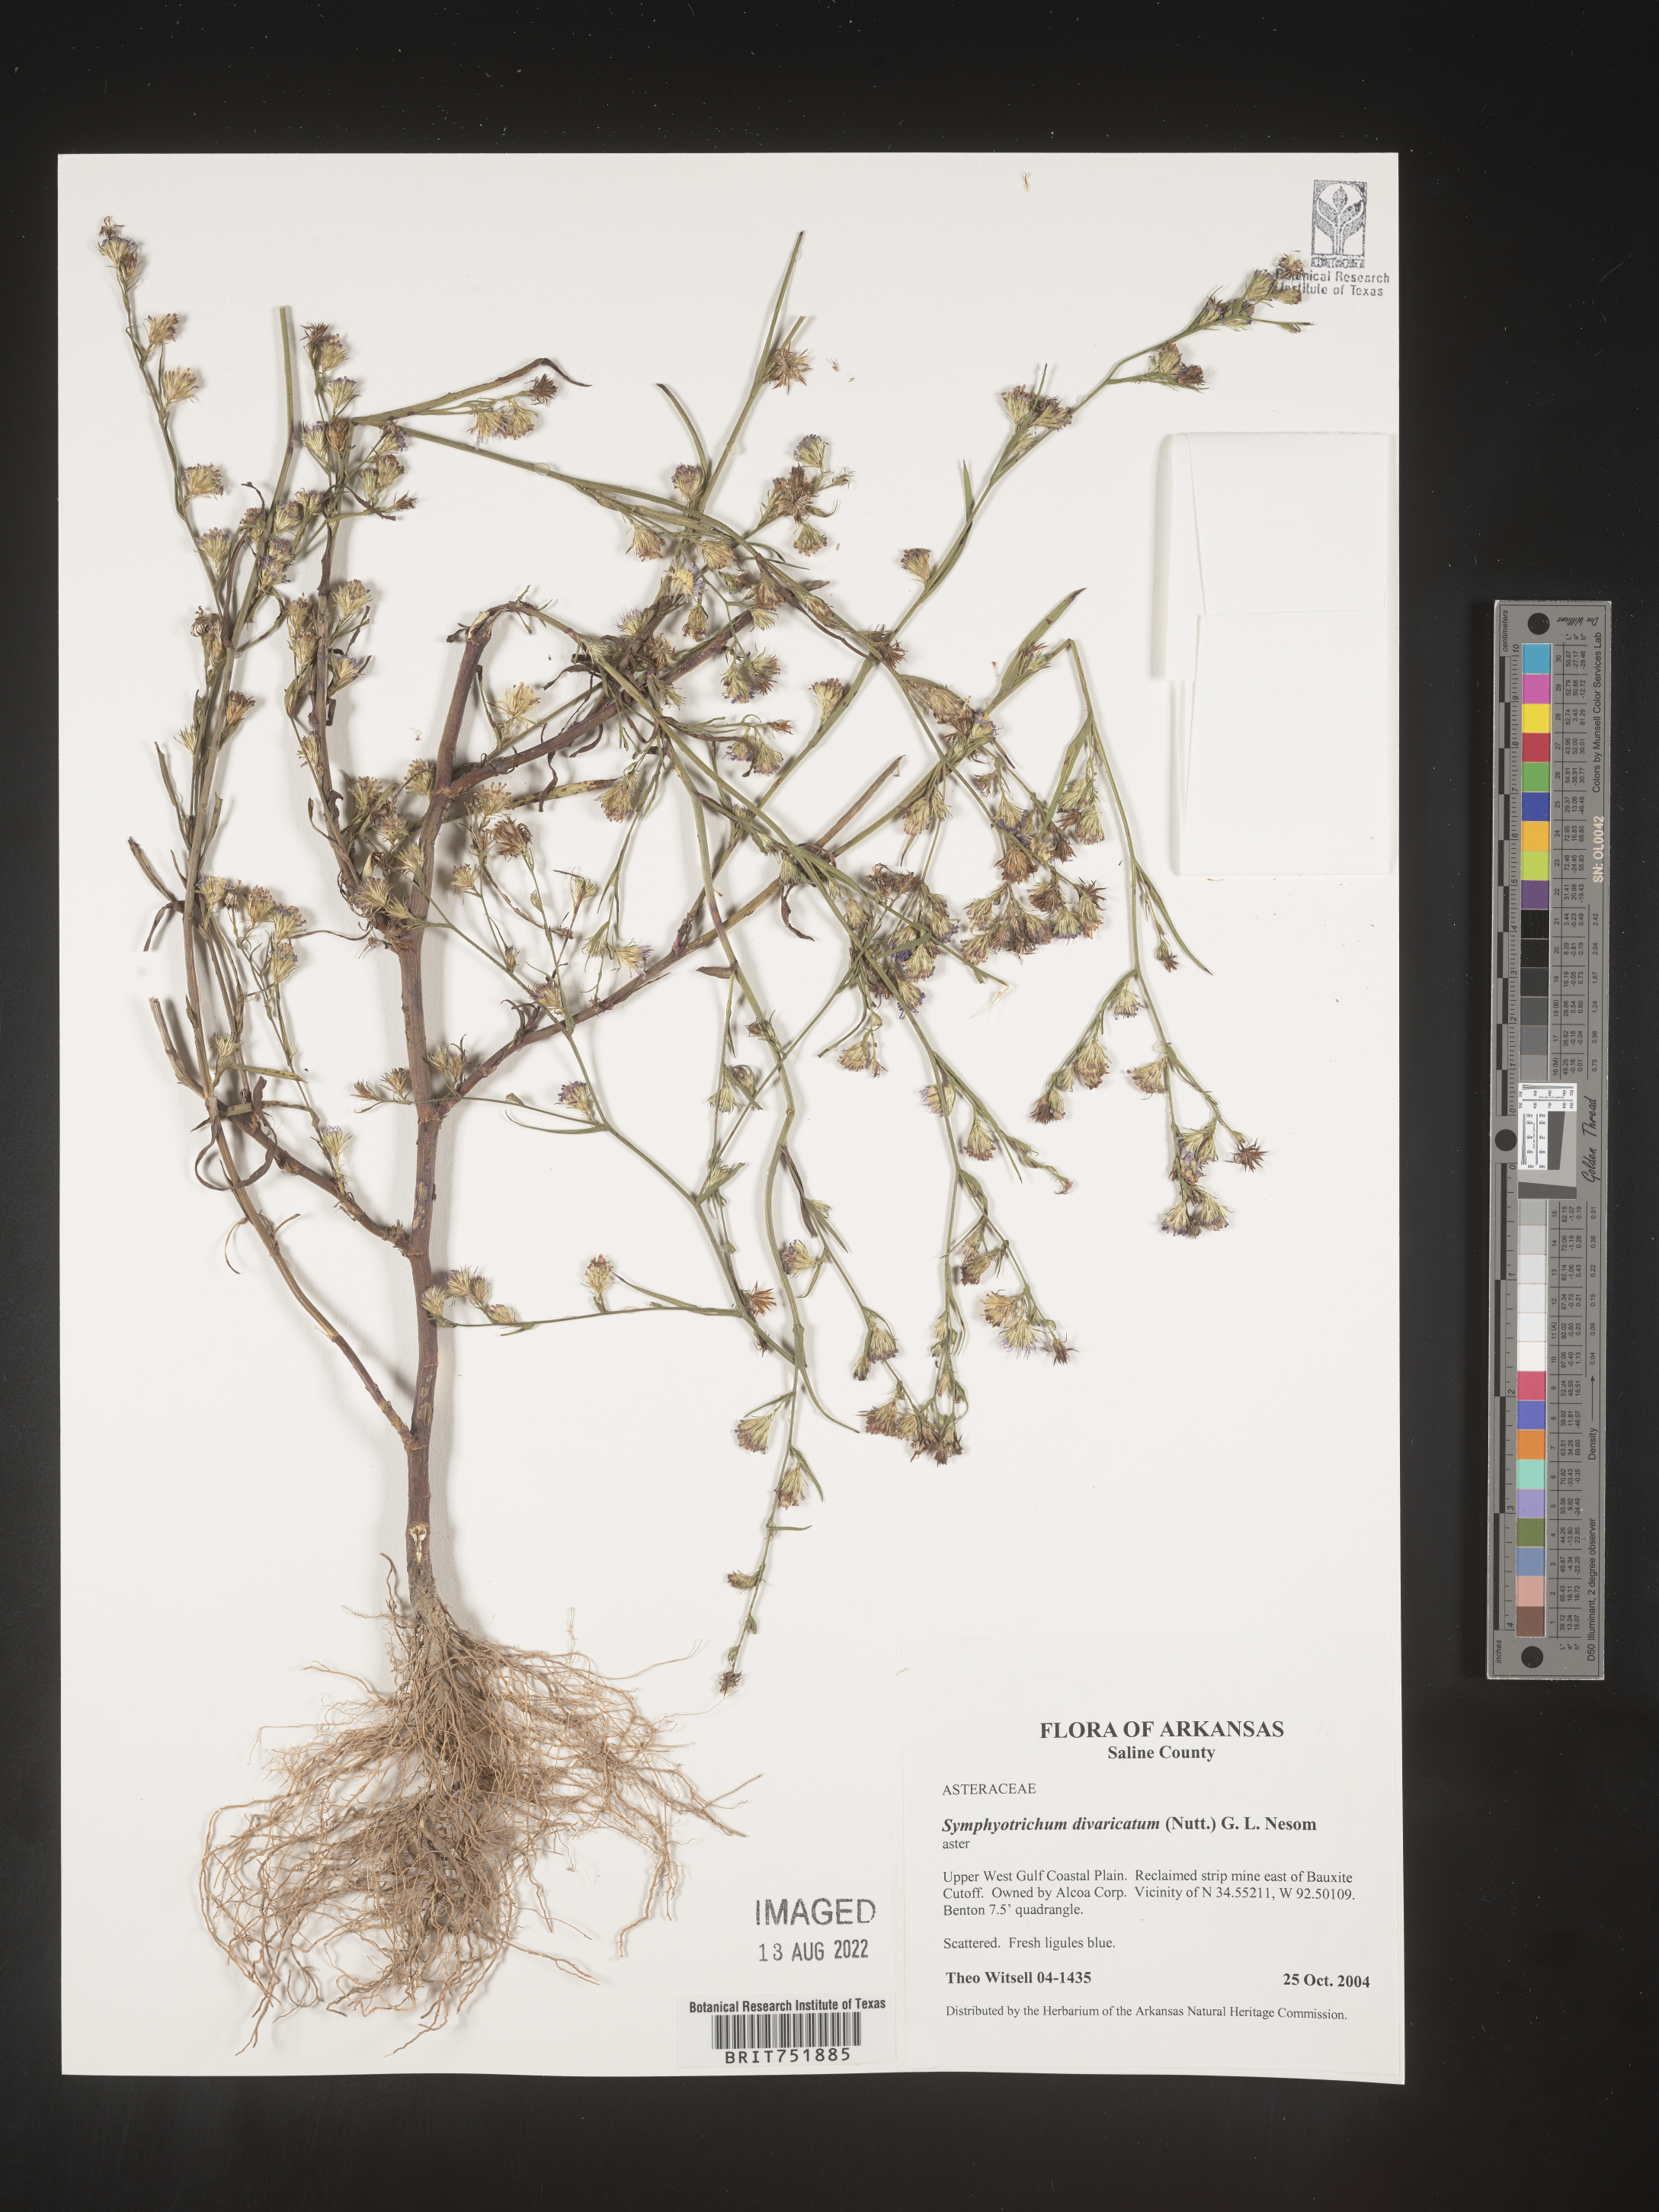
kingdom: Plantae
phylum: Tracheophyta
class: Magnoliopsida
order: Asterales
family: Asteraceae
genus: Symphyotrichum
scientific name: Symphyotrichum divaricatum
